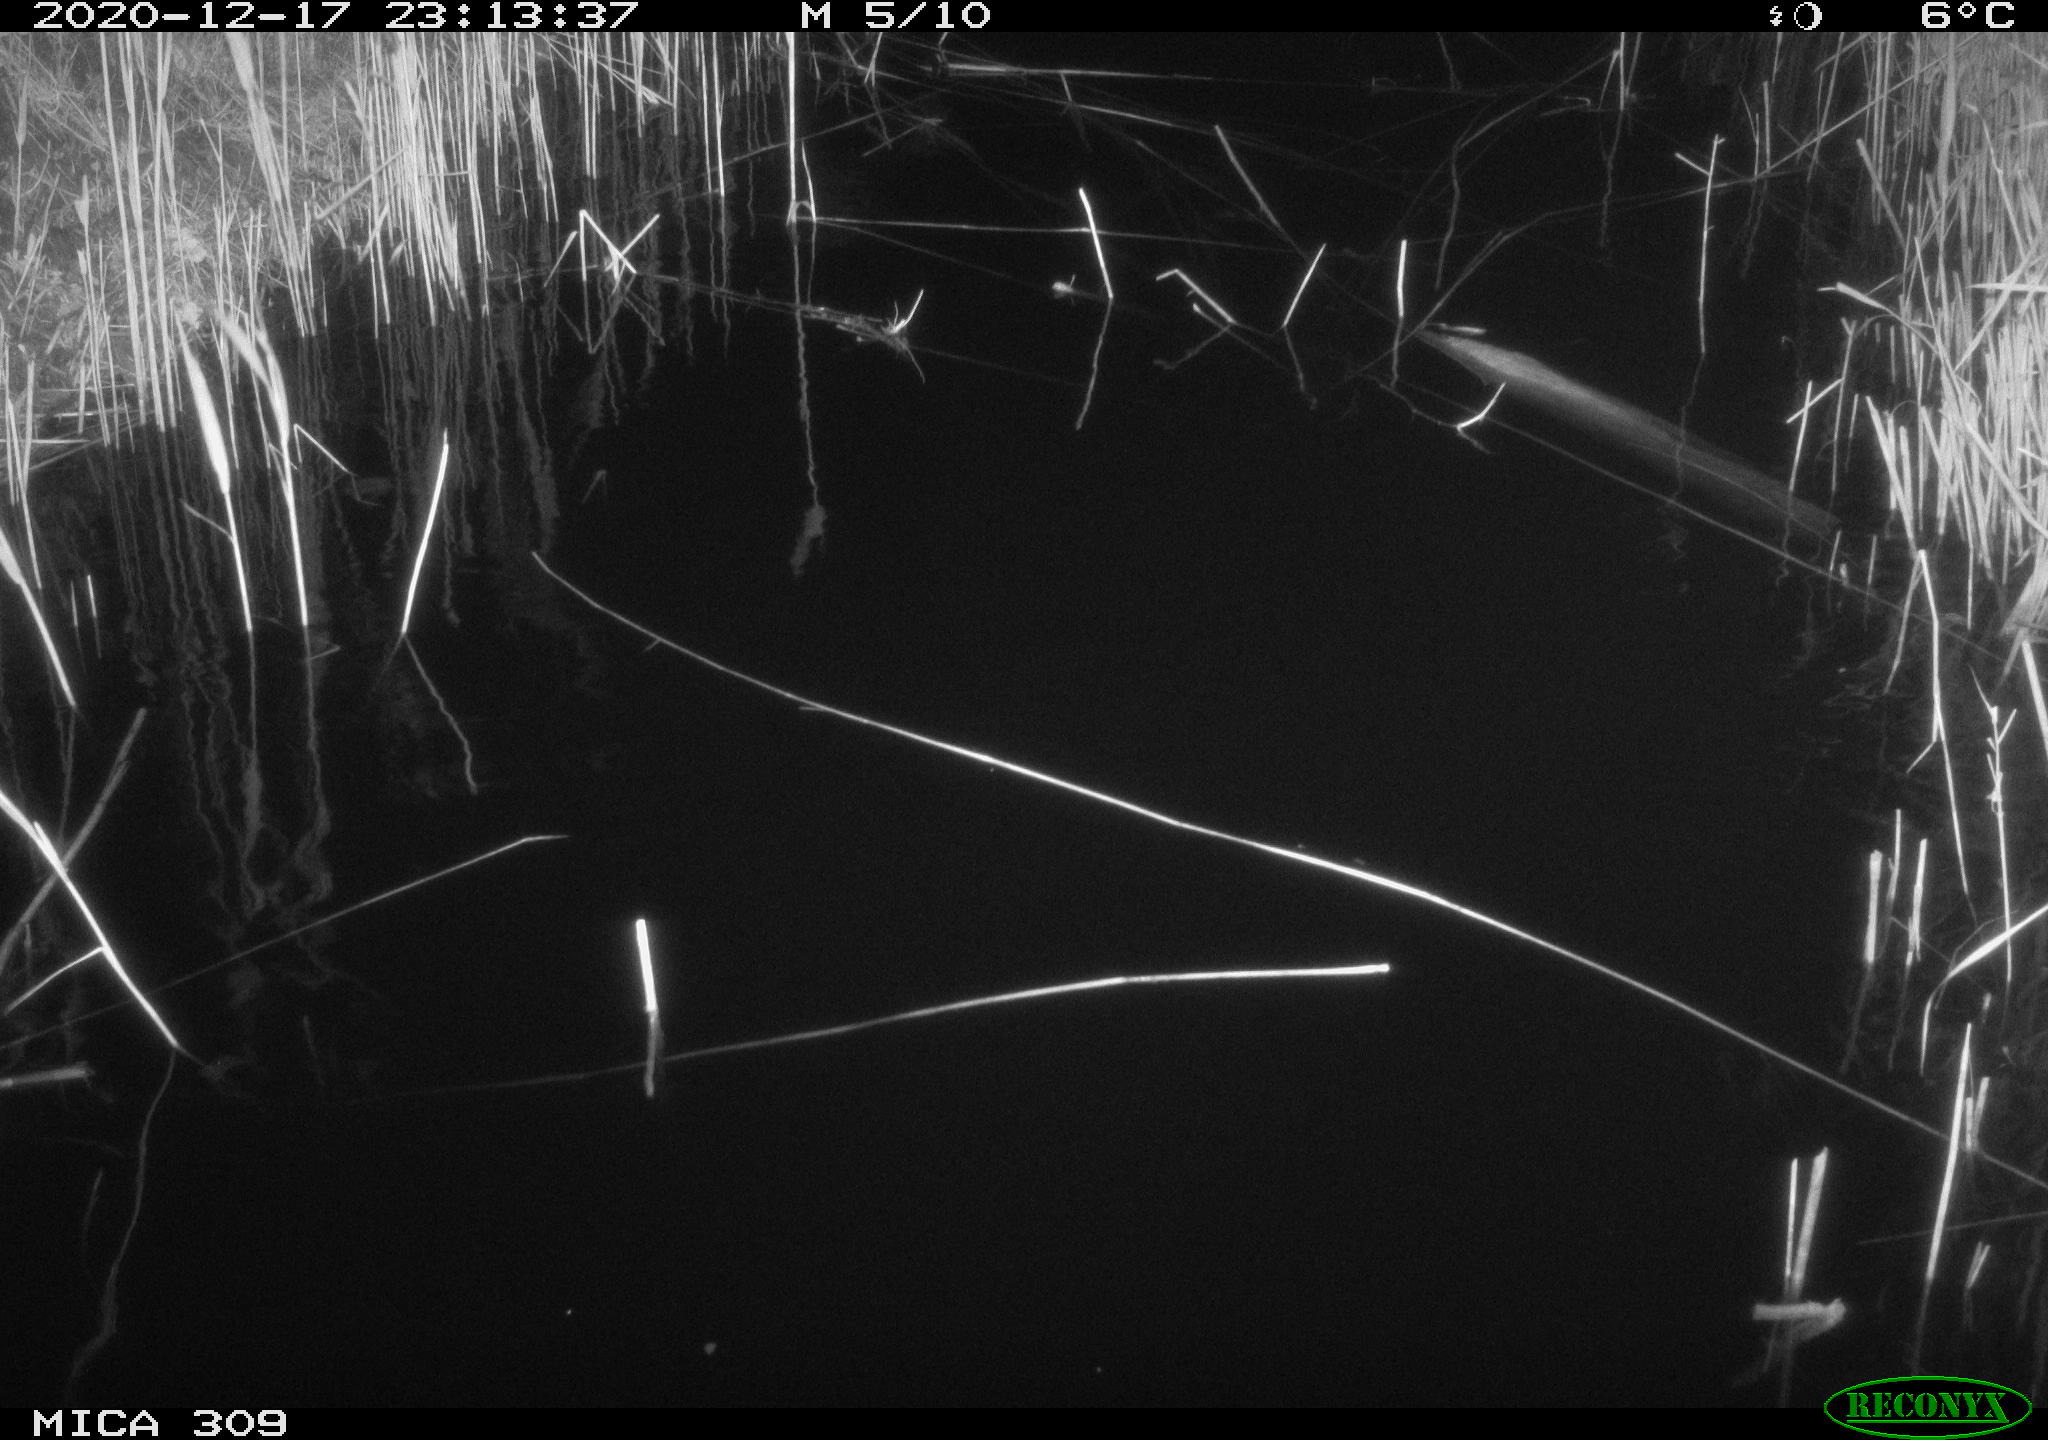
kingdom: Animalia
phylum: Chordata
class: Mammalia
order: Rodentia
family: Muridae
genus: Rattus
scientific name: Rattus norvegicus
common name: Brown rat
